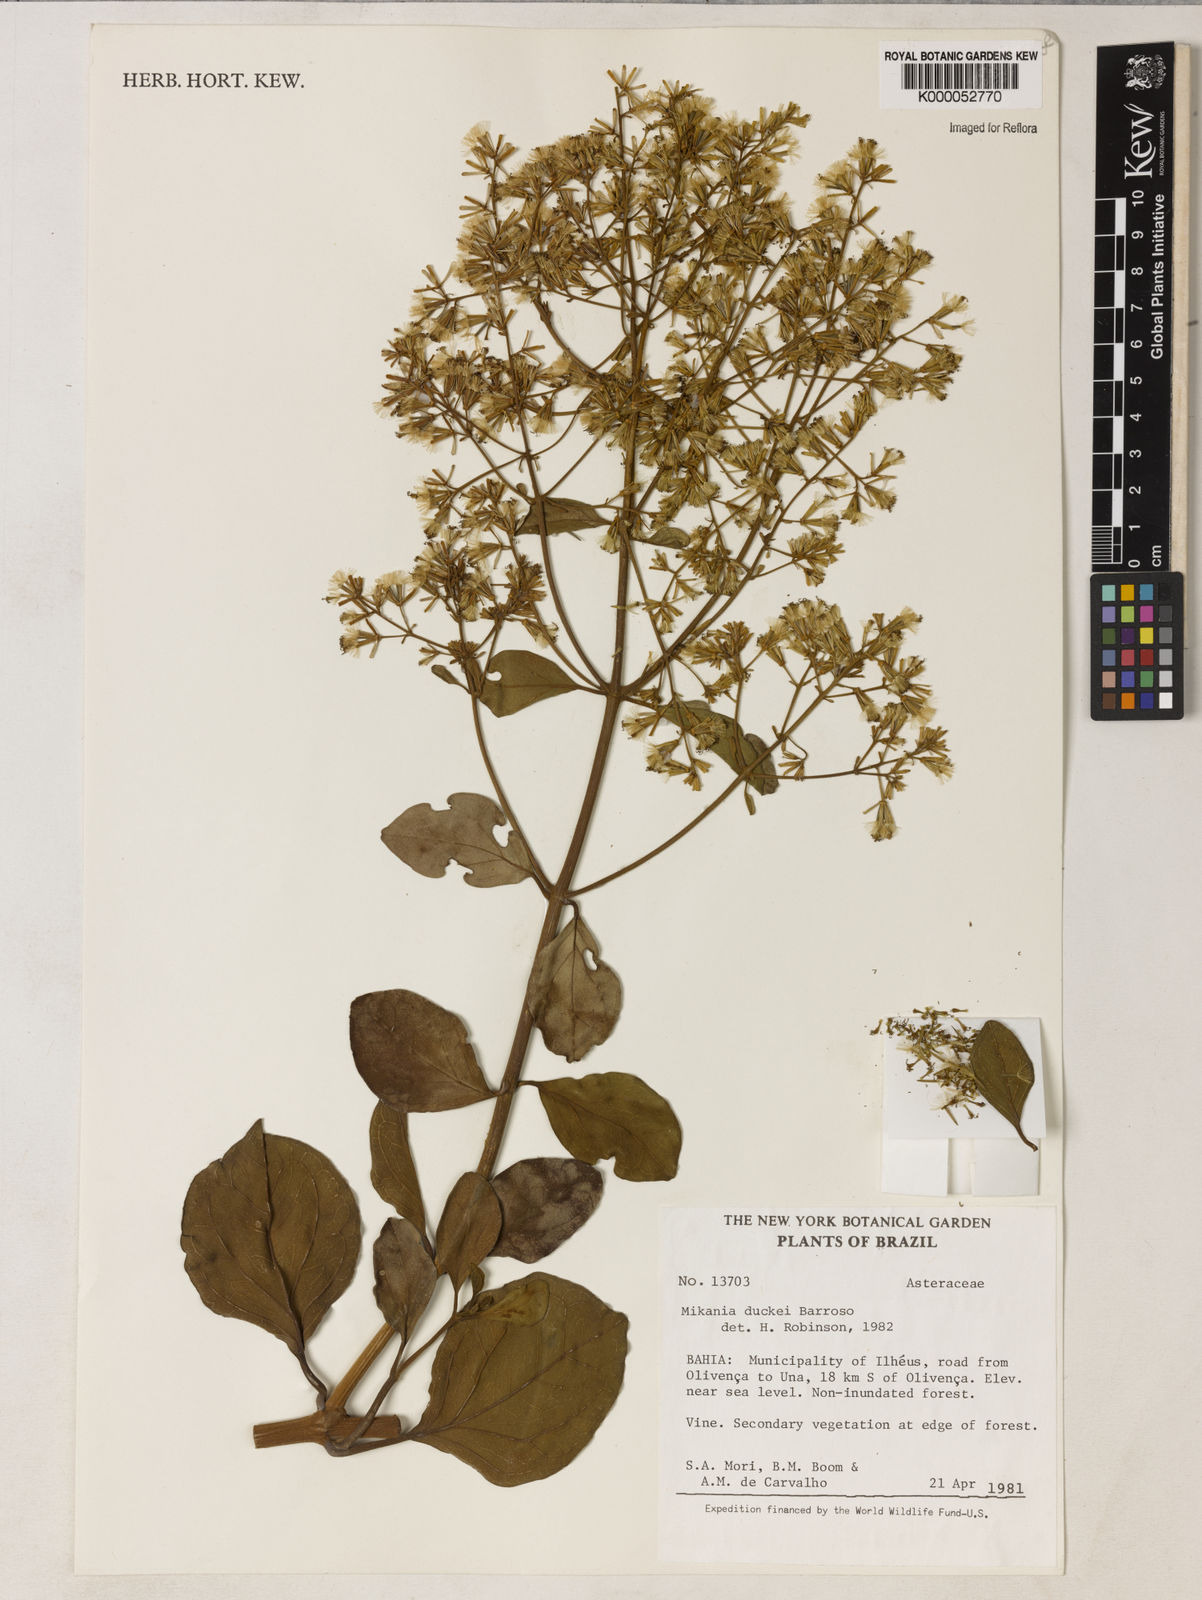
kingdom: Plantae
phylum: Tracheophyta
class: Magnoliopsida
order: Asterales
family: Asteraceae
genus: Mikania
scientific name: Mikania duckei
